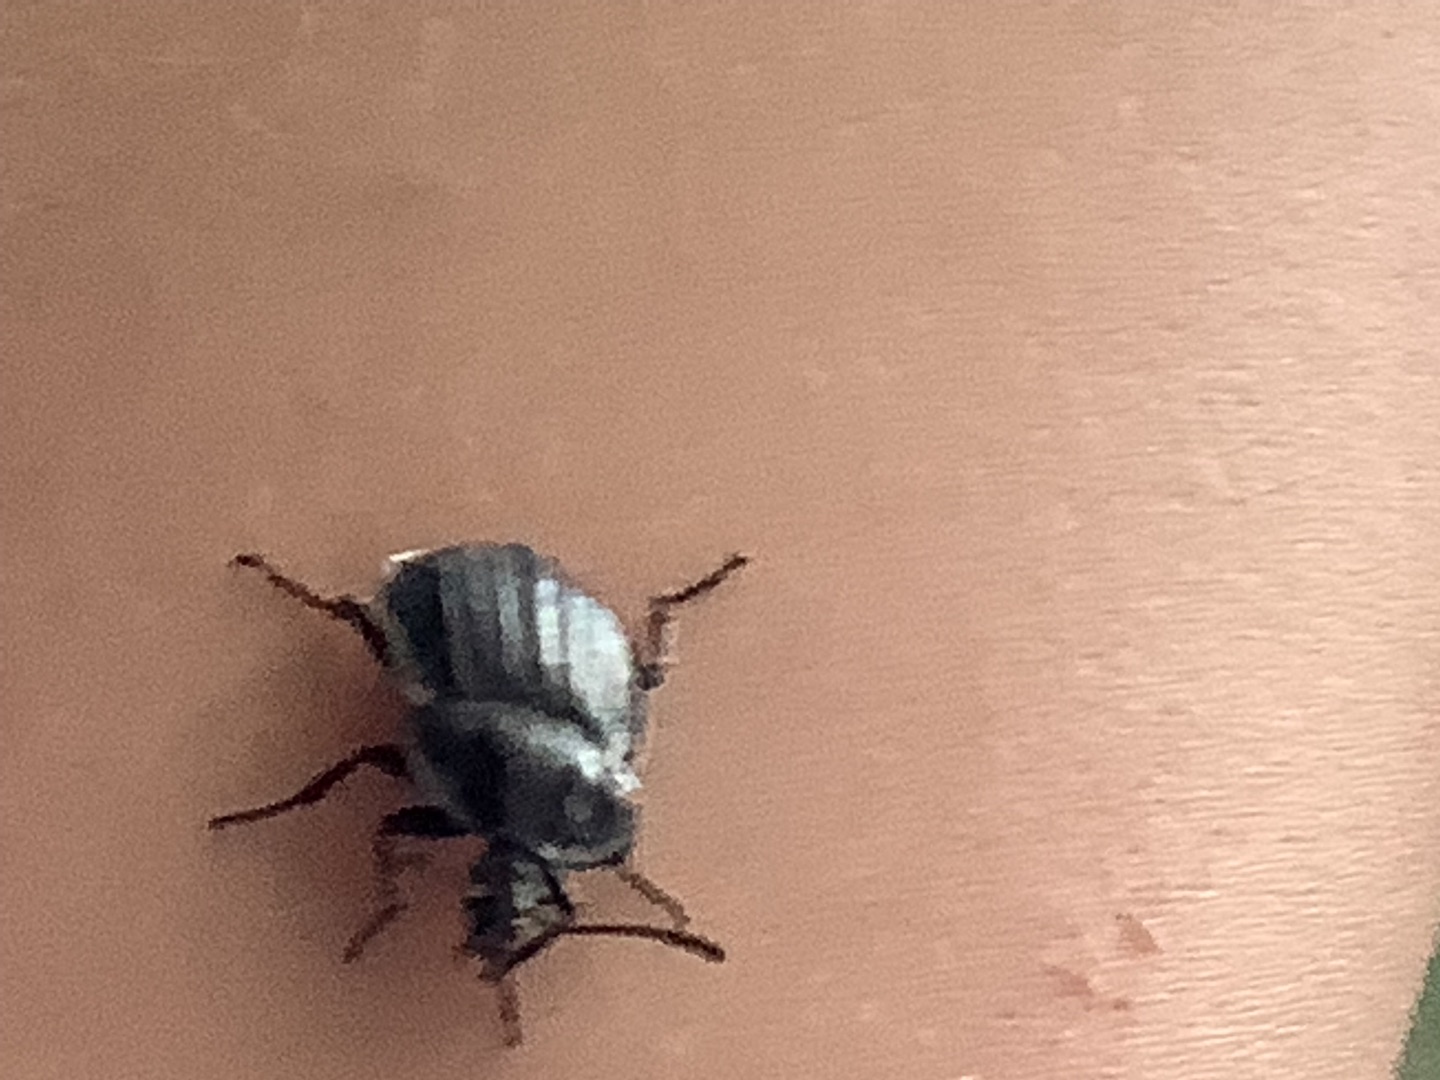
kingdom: Animalia
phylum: Arthropoda
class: Insecta
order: Coleoptera
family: Staphylinidae
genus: Silpha
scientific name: Silpha atrata
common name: Snegleådselbille
